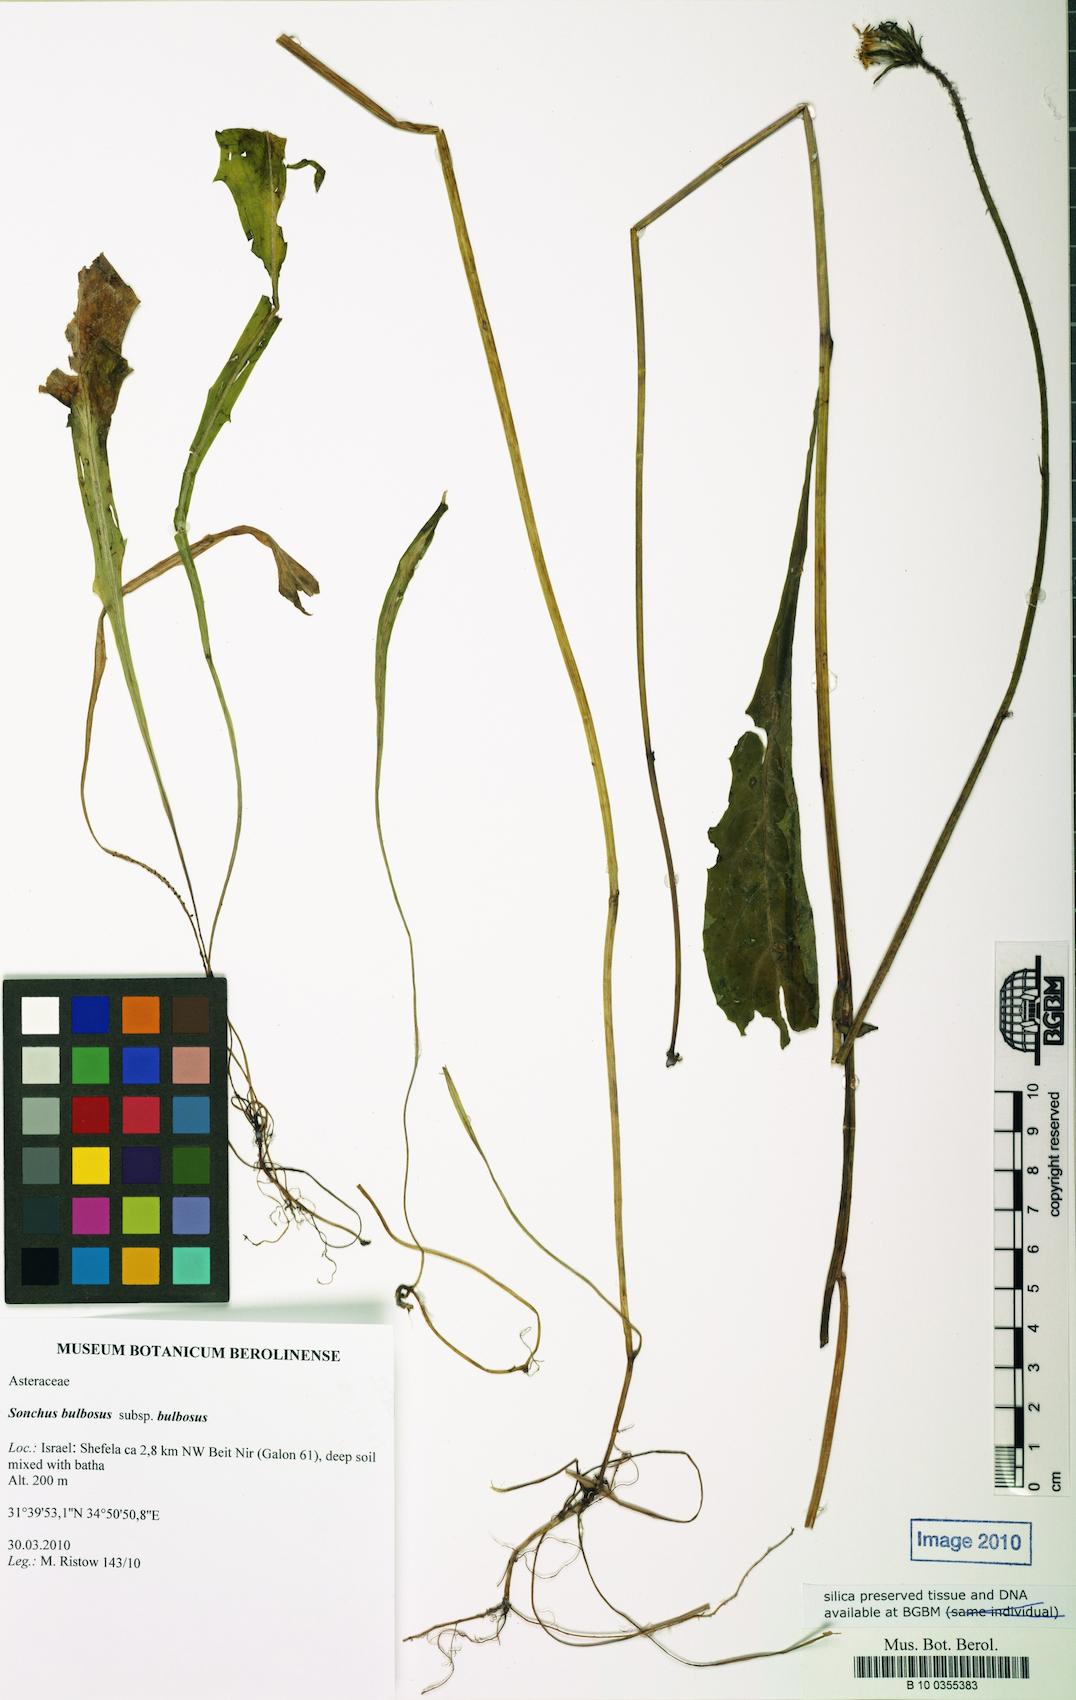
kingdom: Plantae
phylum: Tracheophyta
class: Magnoliopsida
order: Asterales
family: Asteraceae
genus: Aetheorhiza
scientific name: Aetheorhiza bulbosa
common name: Tuberous hawk's-beard
